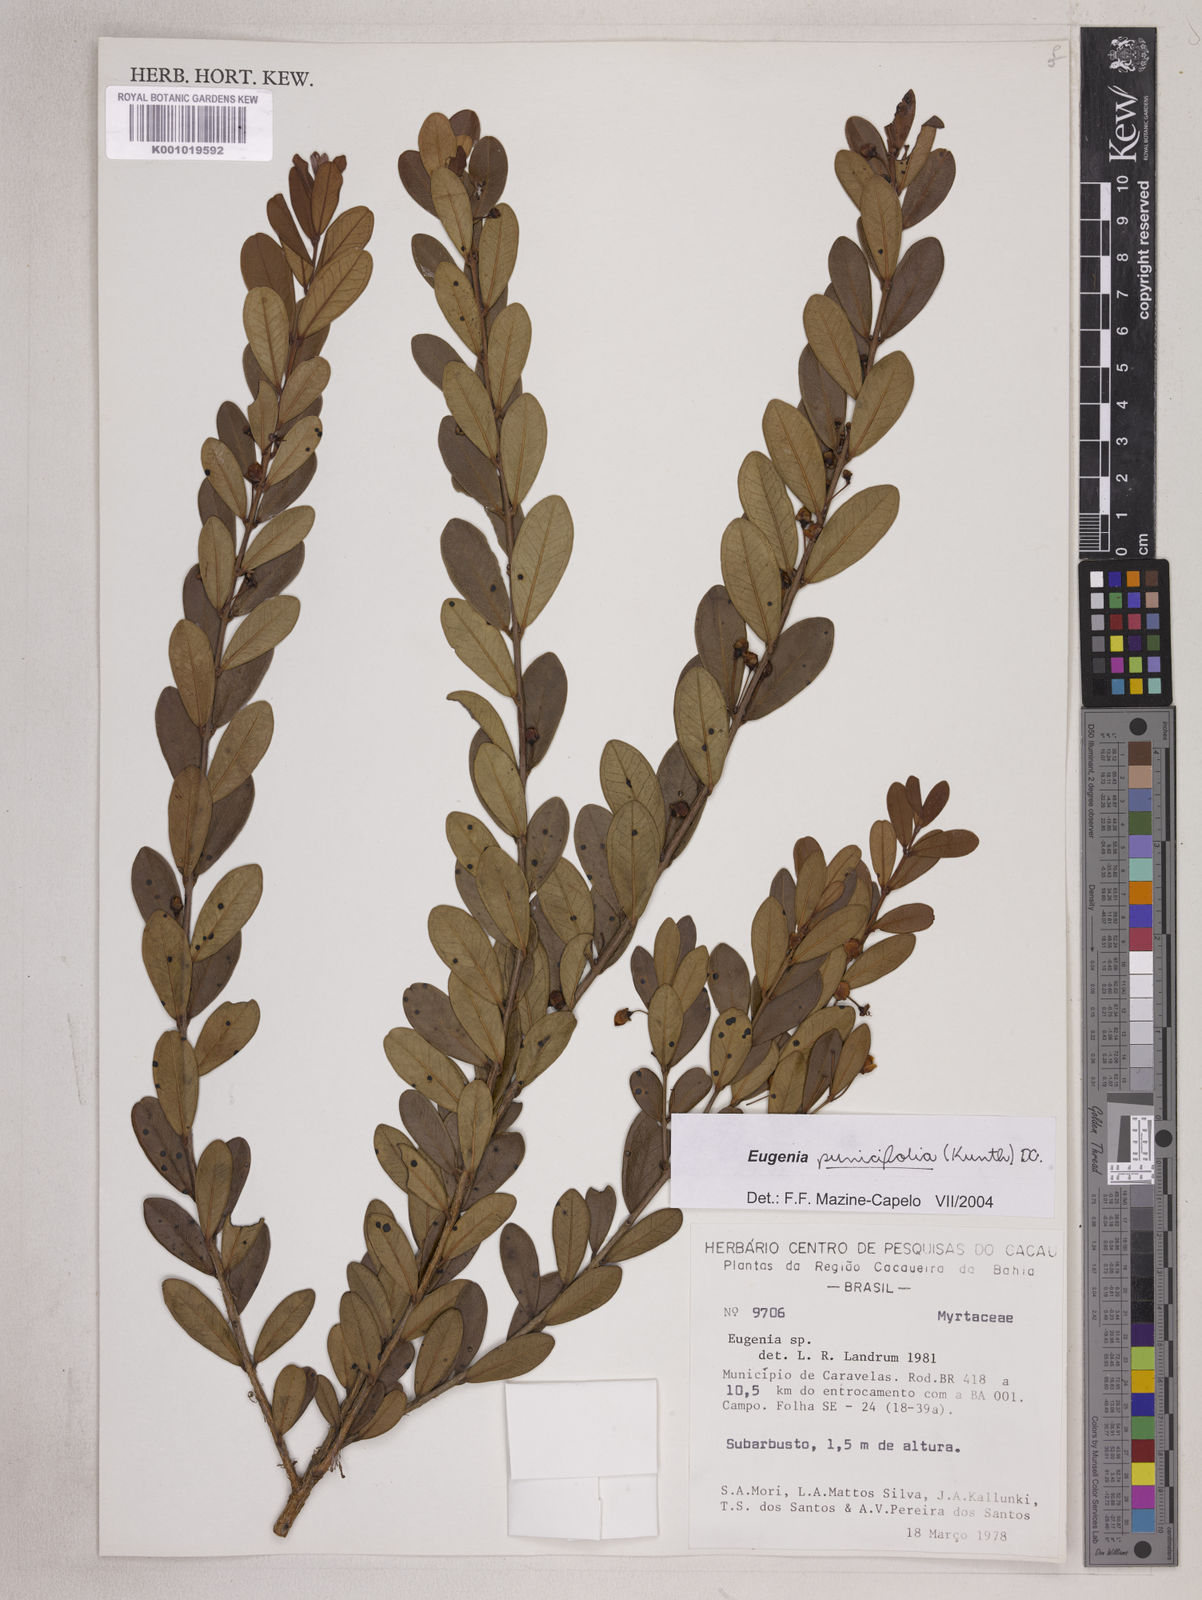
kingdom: Plantae
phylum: Tracheophyta
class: Magnoliopsida
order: Myrtales
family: Myrtaceae
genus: Eugenia
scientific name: Eugenia punicifolia
